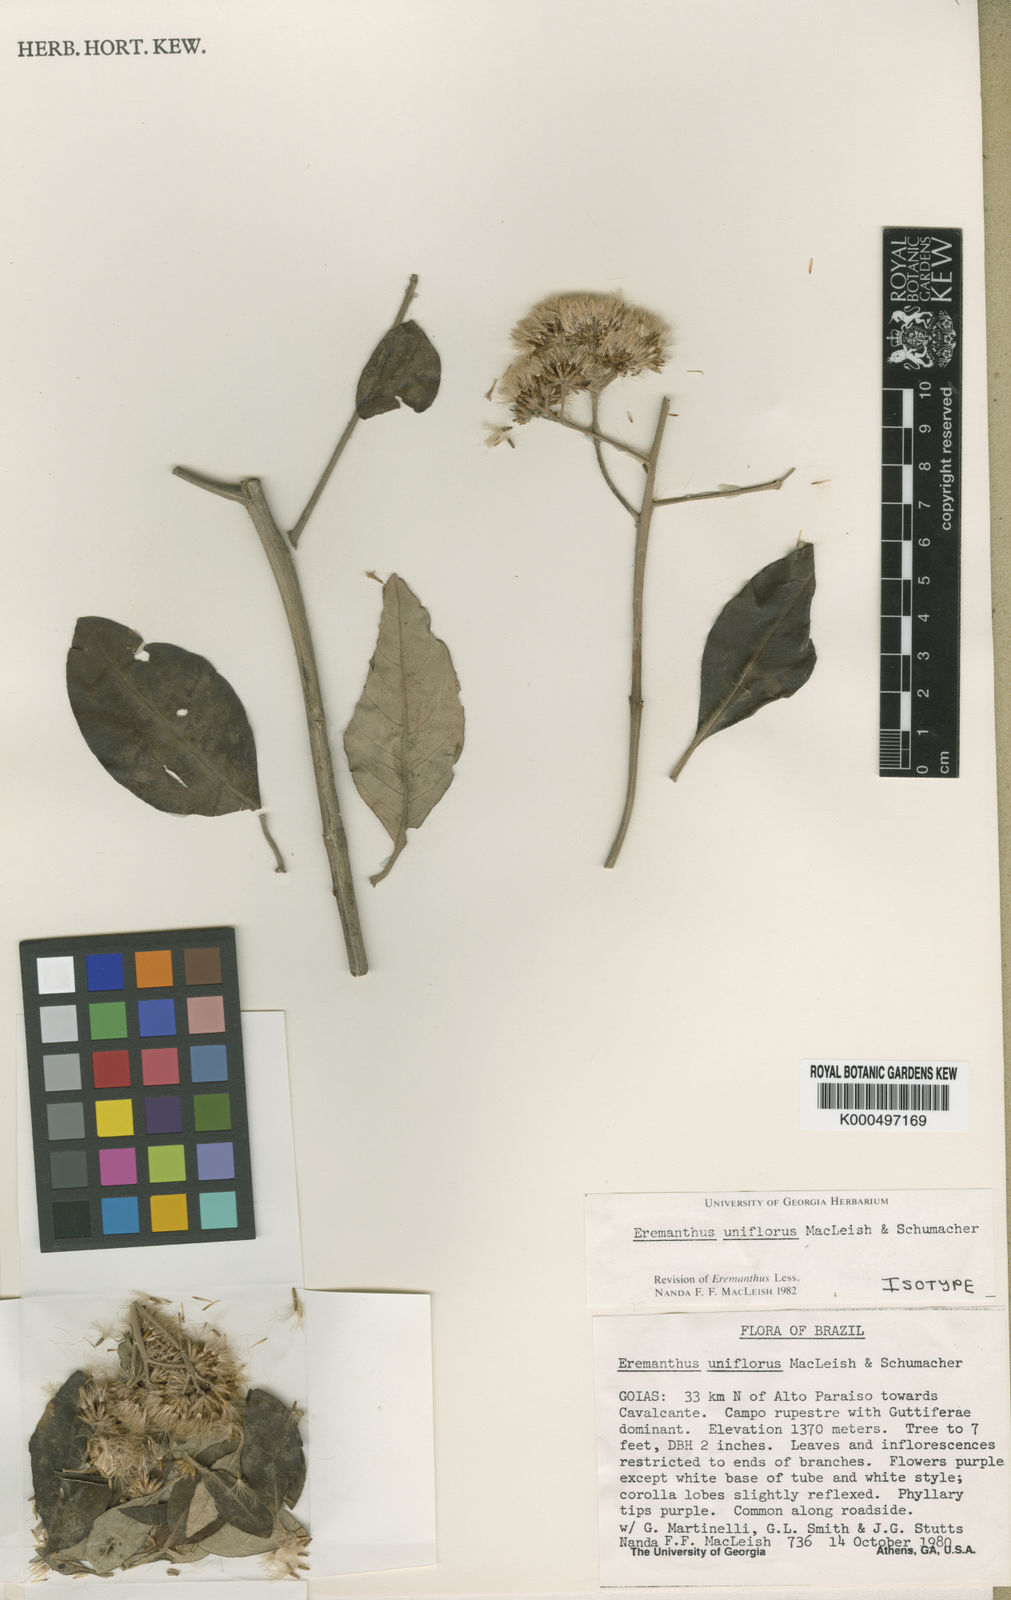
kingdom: Plantae
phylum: Tracheophyta
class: Magnoliopsida
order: Asterales
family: Asteraceae
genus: Eremanthus
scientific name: Eremanthus uniflorus
